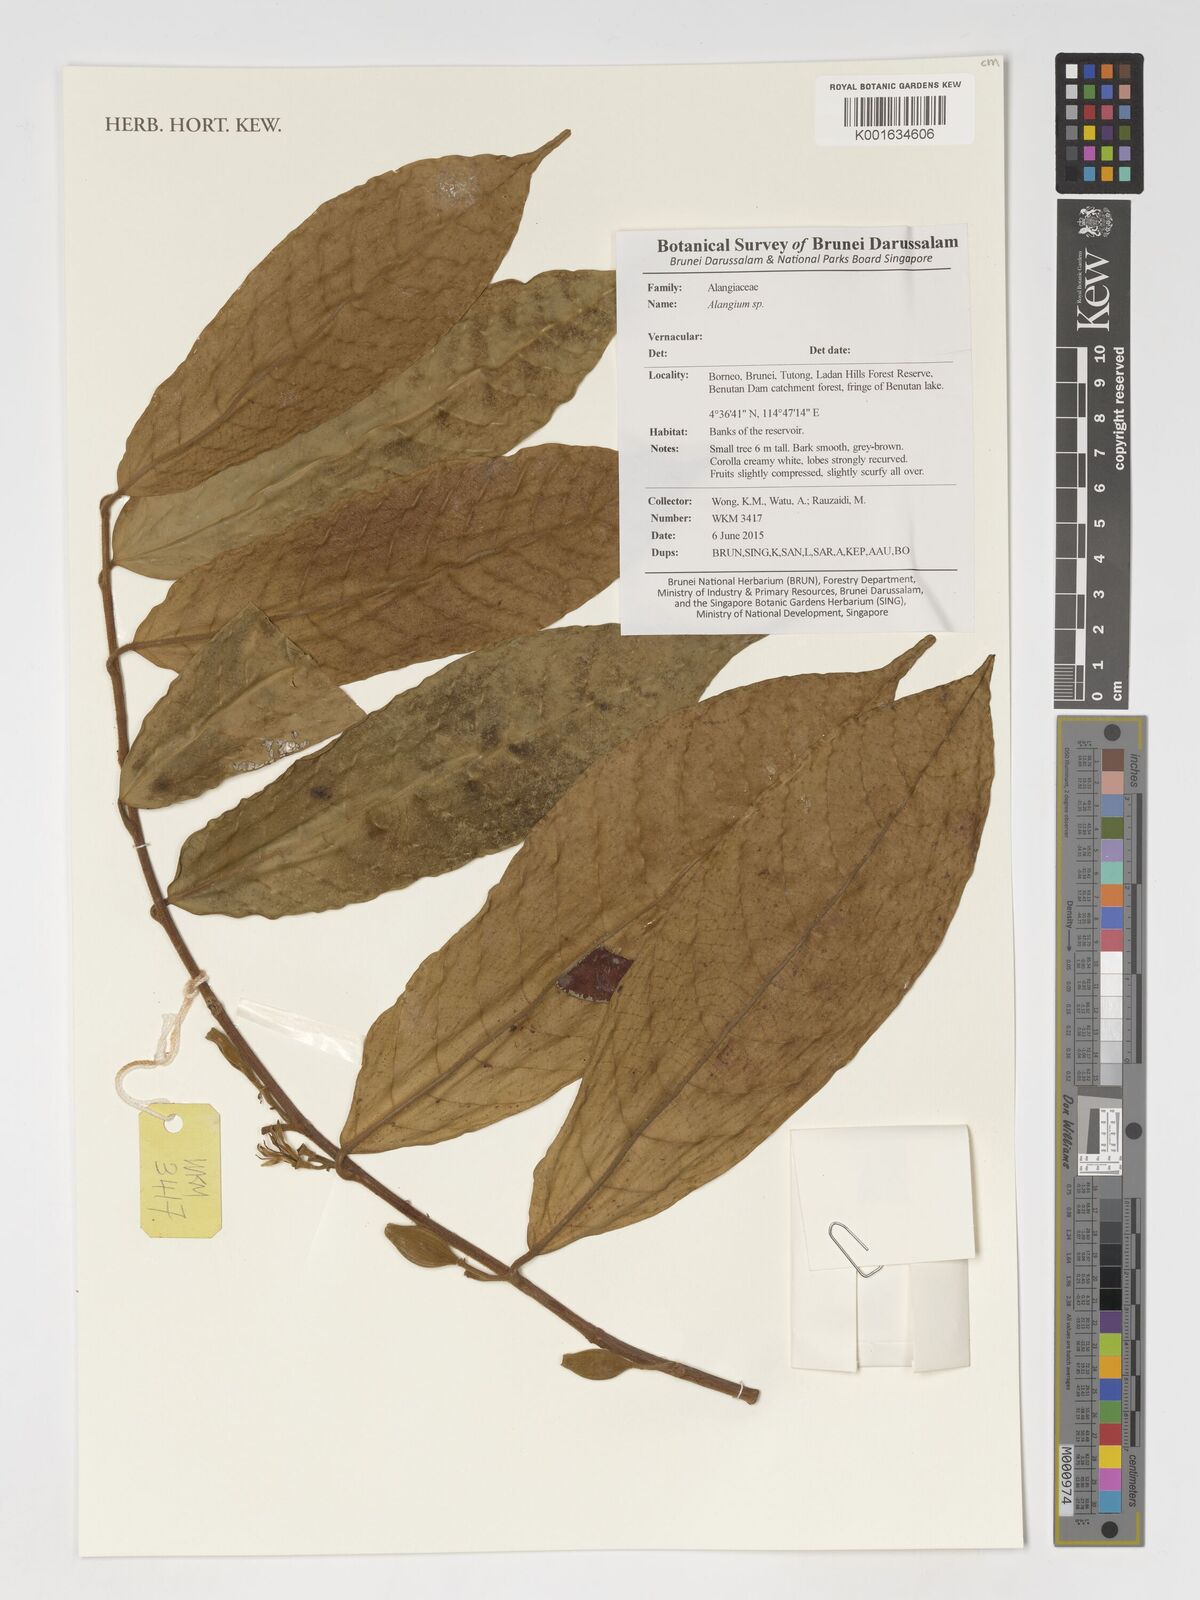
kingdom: Plantae
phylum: Tracheophyta
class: Magnoliopsida
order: Cornales
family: Cornaceae
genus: Alangium
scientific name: Alangium
